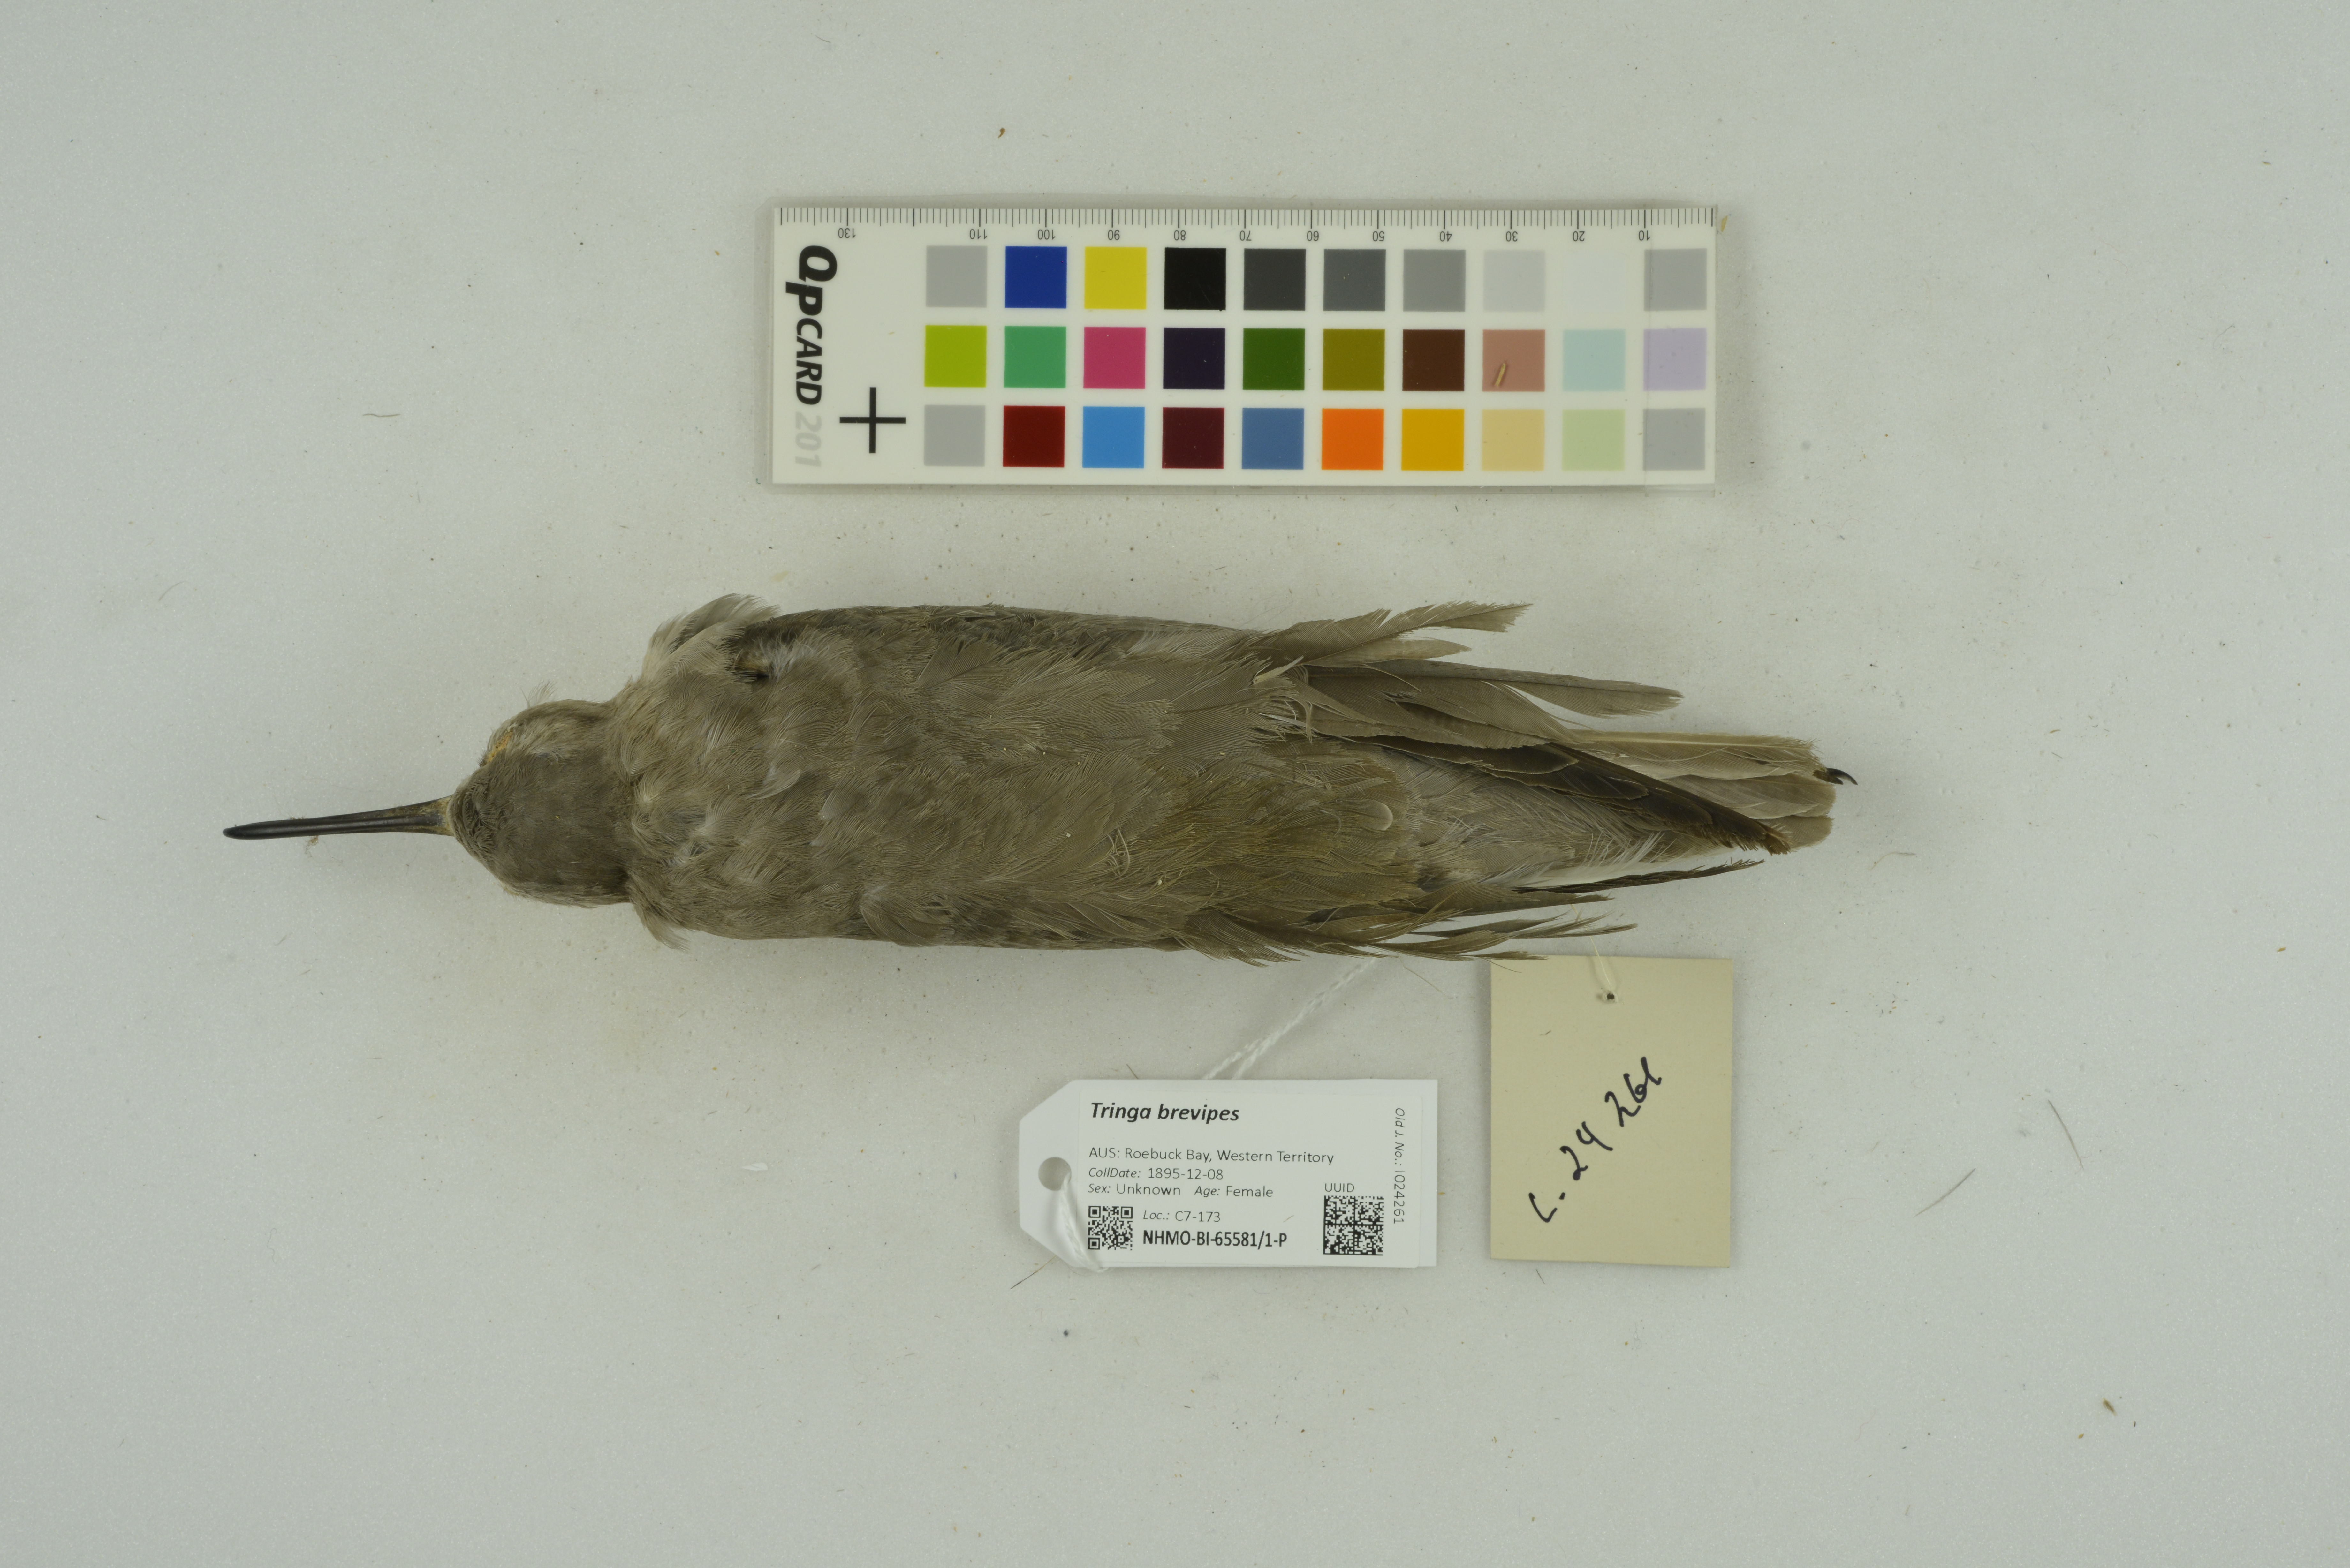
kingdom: Animalia
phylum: Chordata
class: Aves
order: Charadriiformes
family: Scolopacidae
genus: Tringa
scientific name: Tringa brevipes
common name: Grey-tailed tattler
